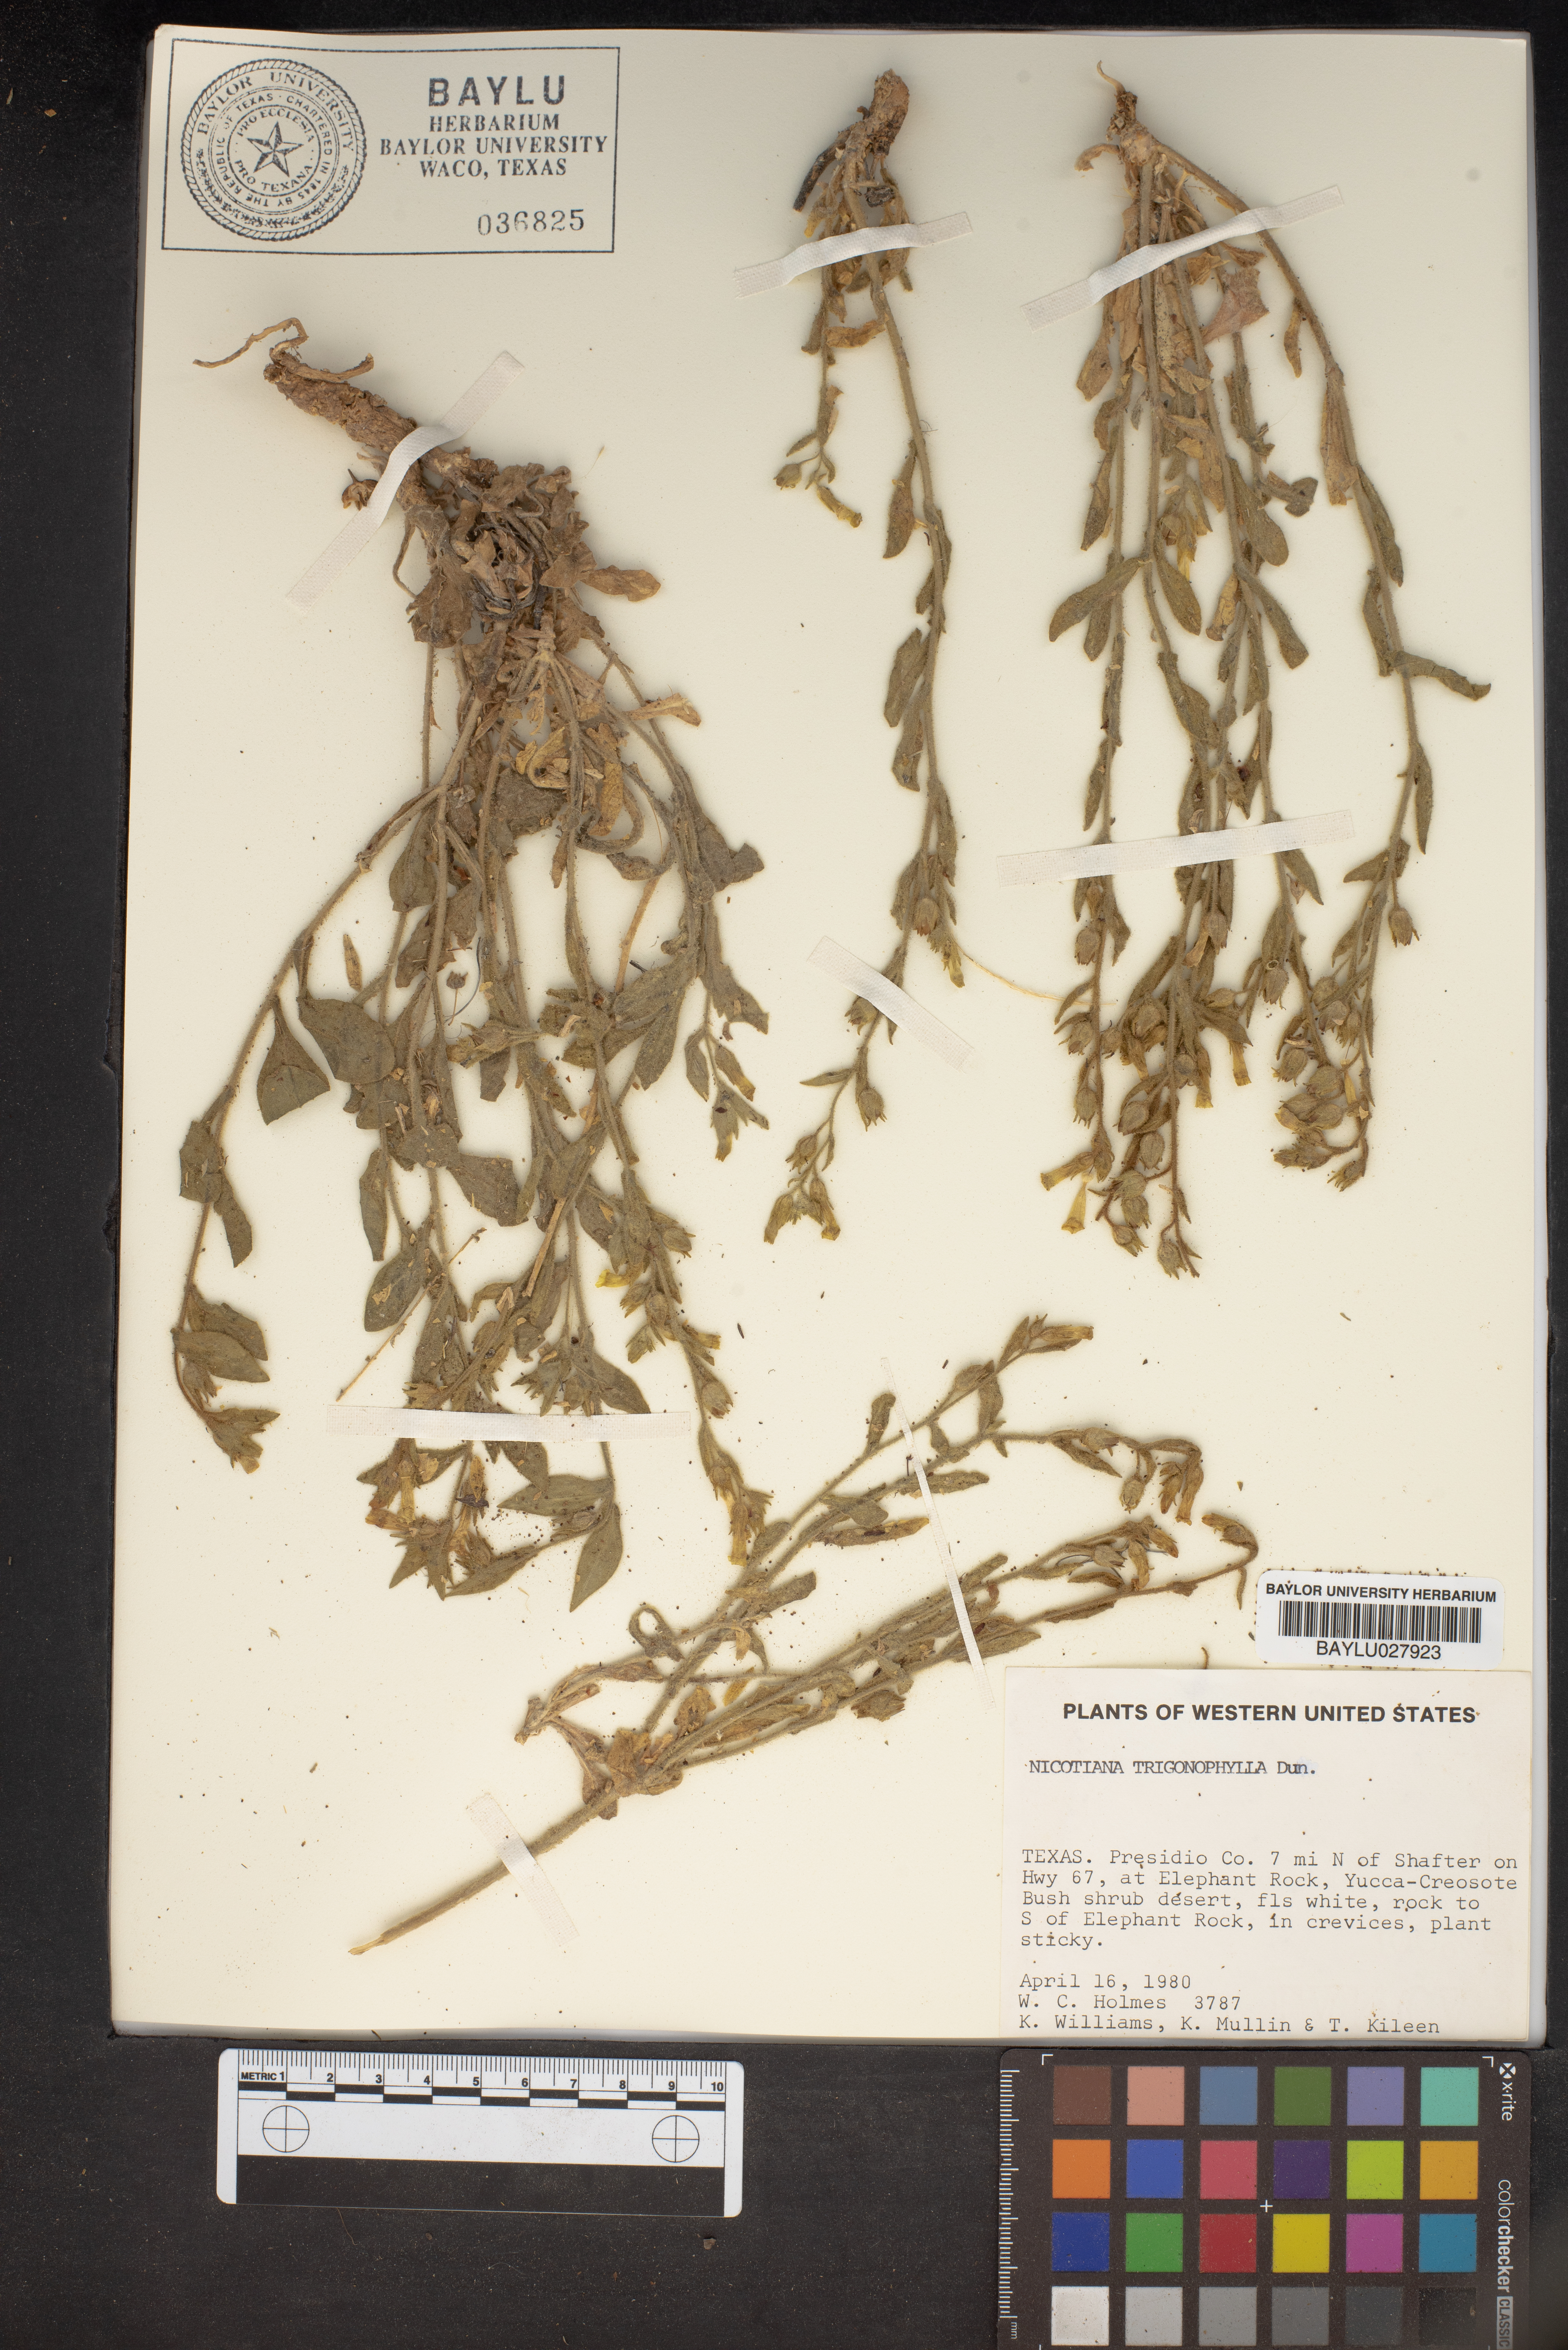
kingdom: Plantae
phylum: Tracheophyta
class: Magnoliopsida
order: Solanales
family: Solanaceae
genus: Nicotiana
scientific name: Nicotiana obtusifolia
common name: Desert tobacco
